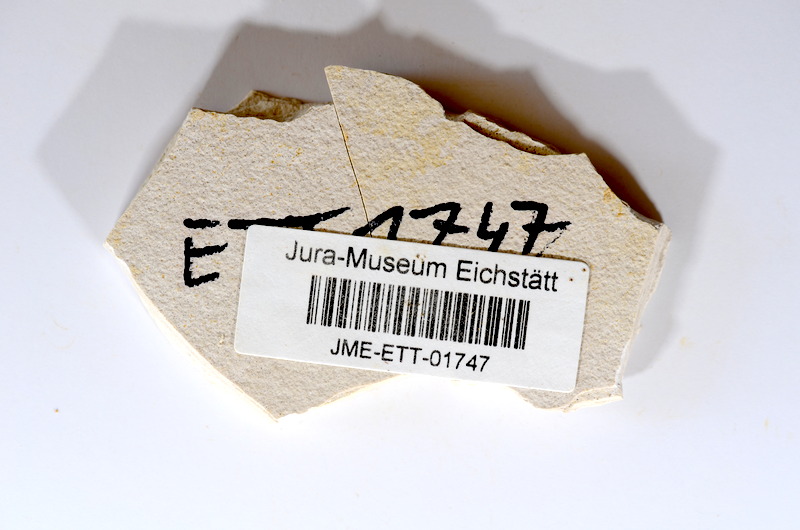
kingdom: Animalia
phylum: Chordata
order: Salmoniformes
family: Orthogonikleithridae
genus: Orthogonikleithrus
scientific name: Orthogonikleithrus hoelli
